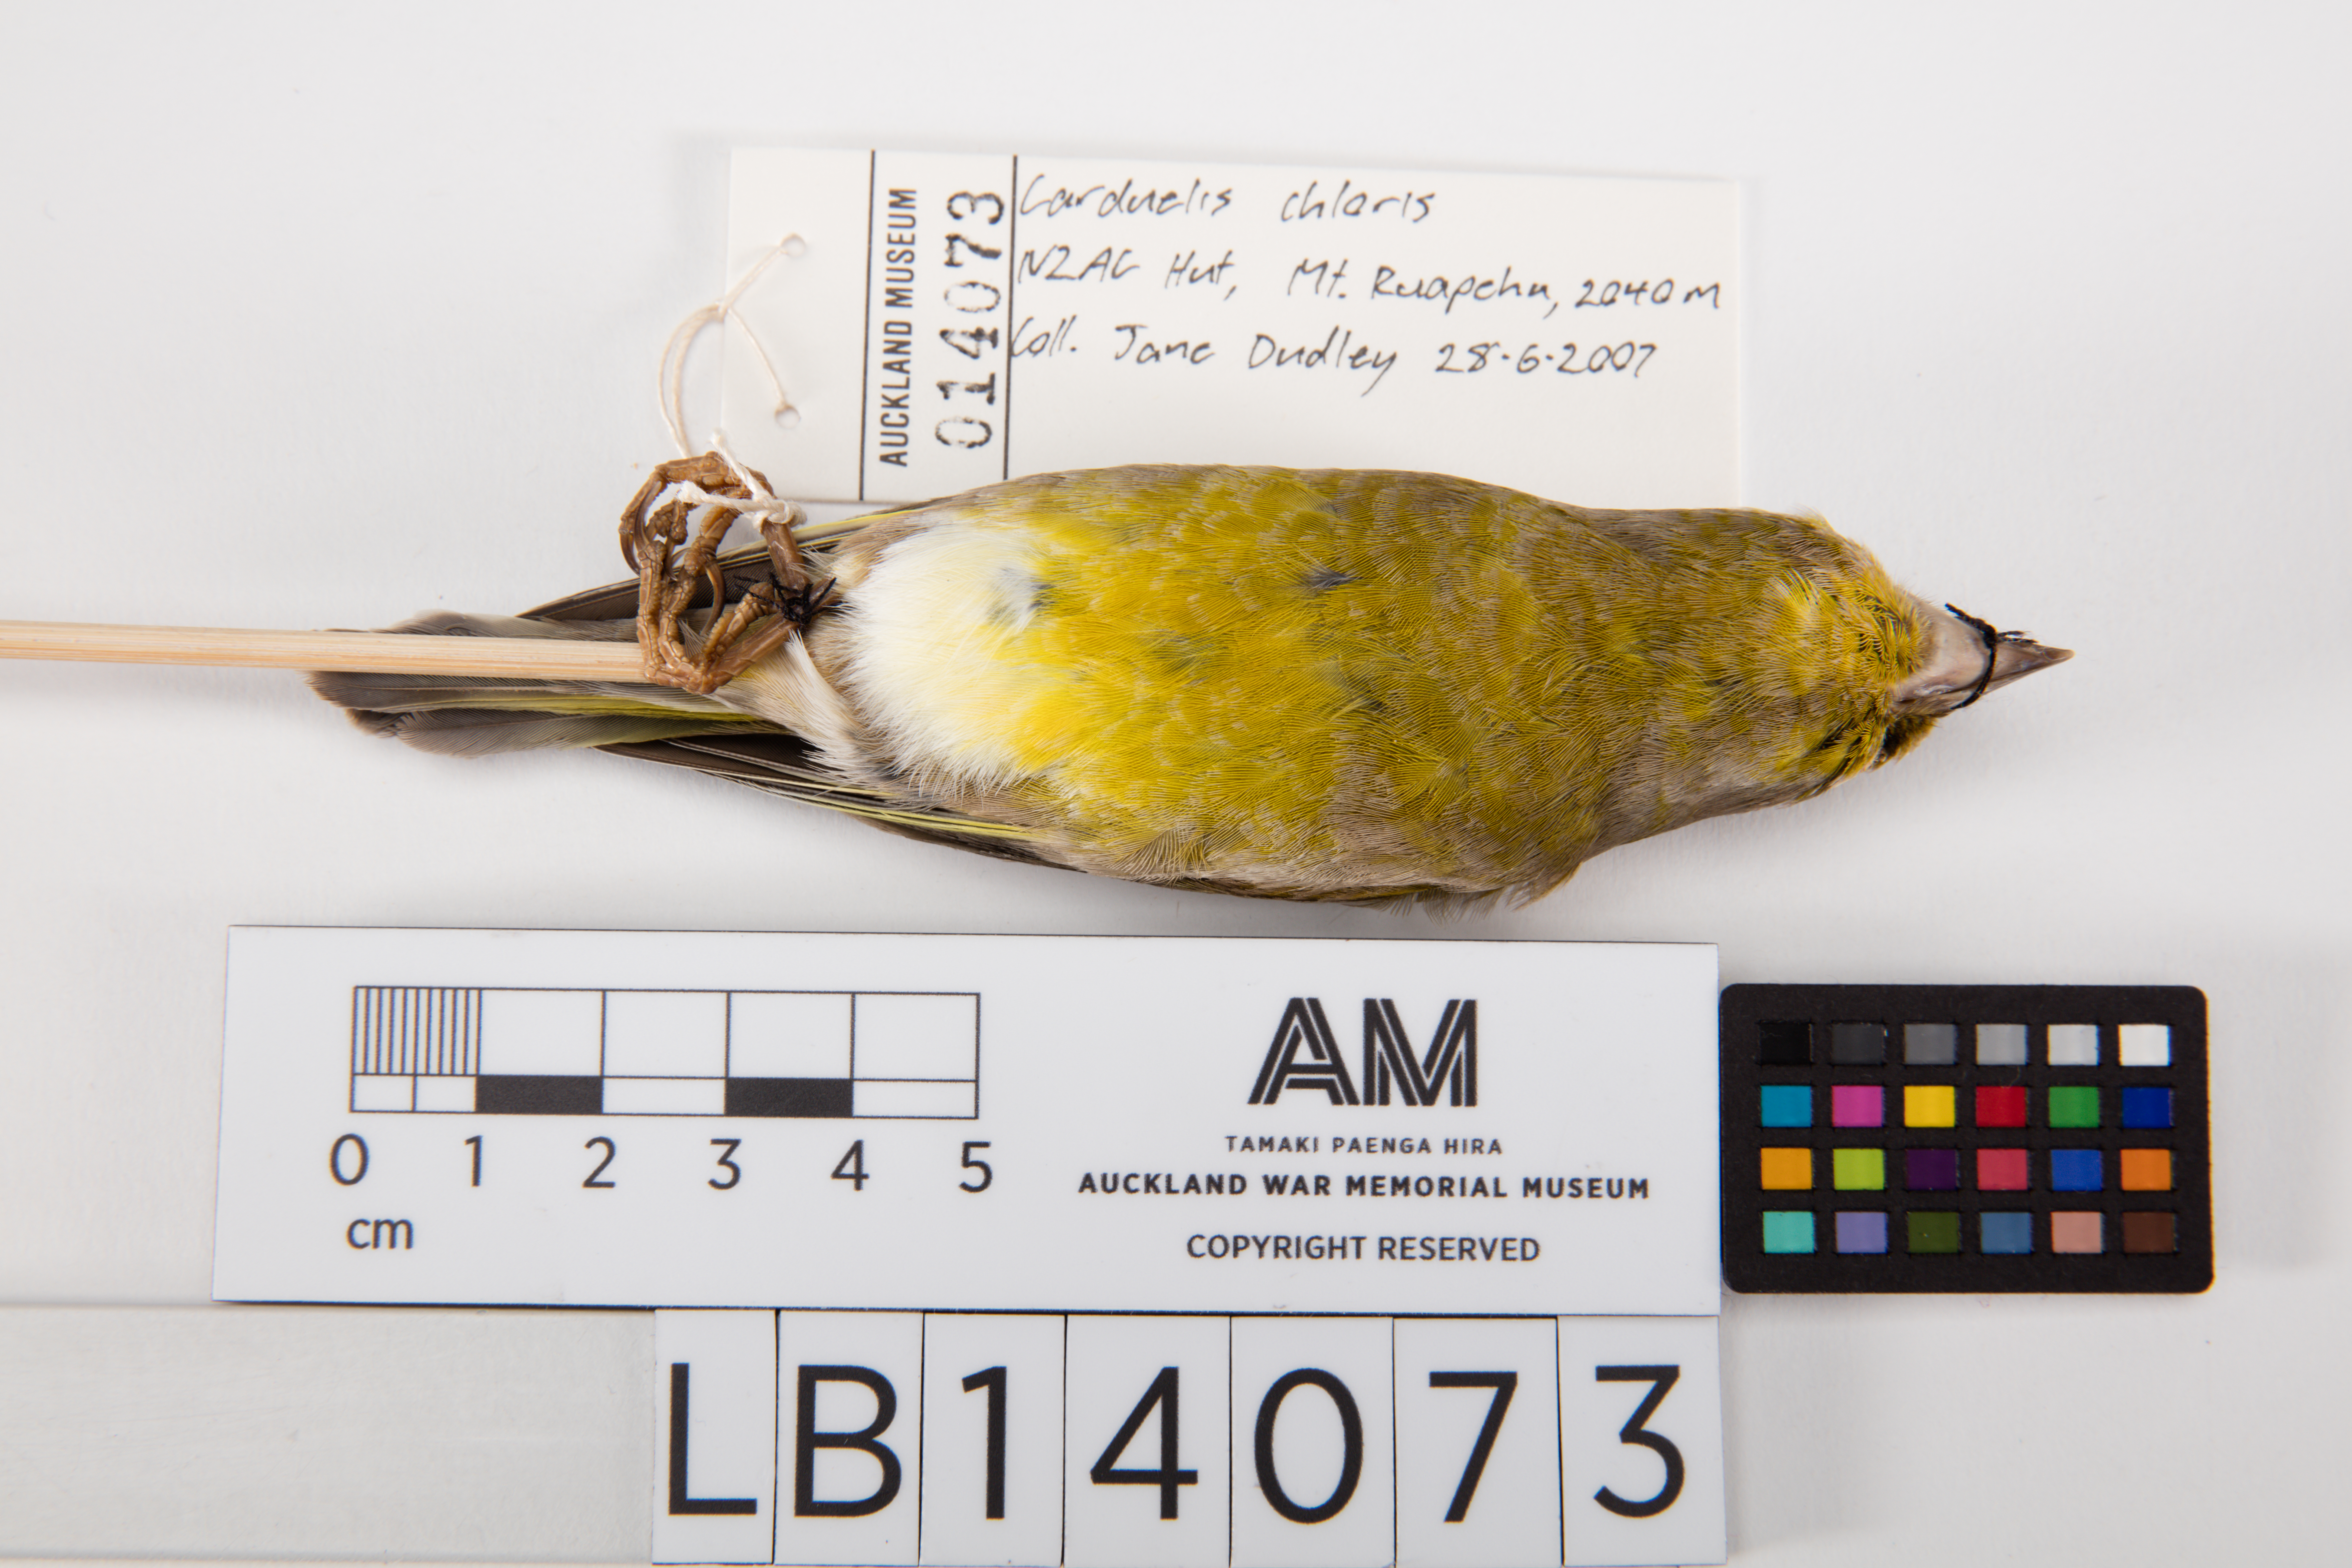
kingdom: Plantae
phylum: Tracheophyta
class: Liliopsida
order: Poales
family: Poaceae
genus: Chloris
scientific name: Chloris chloris
